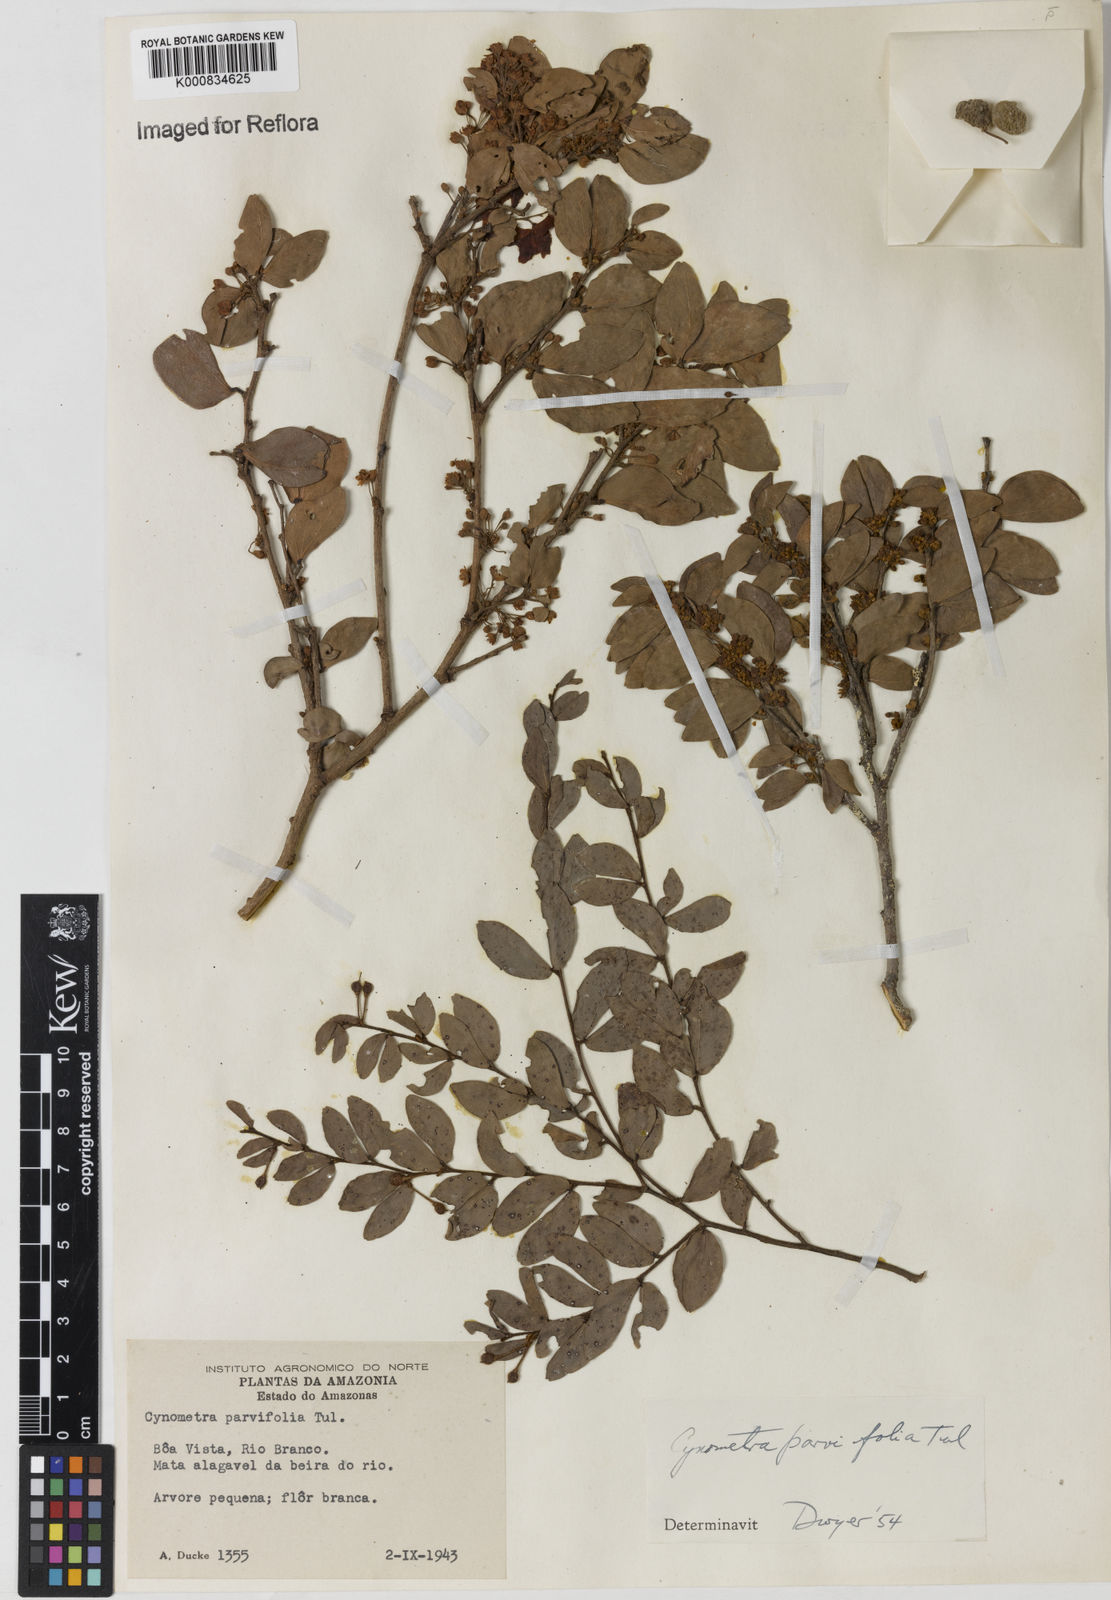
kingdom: Plantae
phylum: Tracheophyta
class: Magnoliopsida
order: Fabales
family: Fabaceae
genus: Cynometra
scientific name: Cynometra parvifolia
